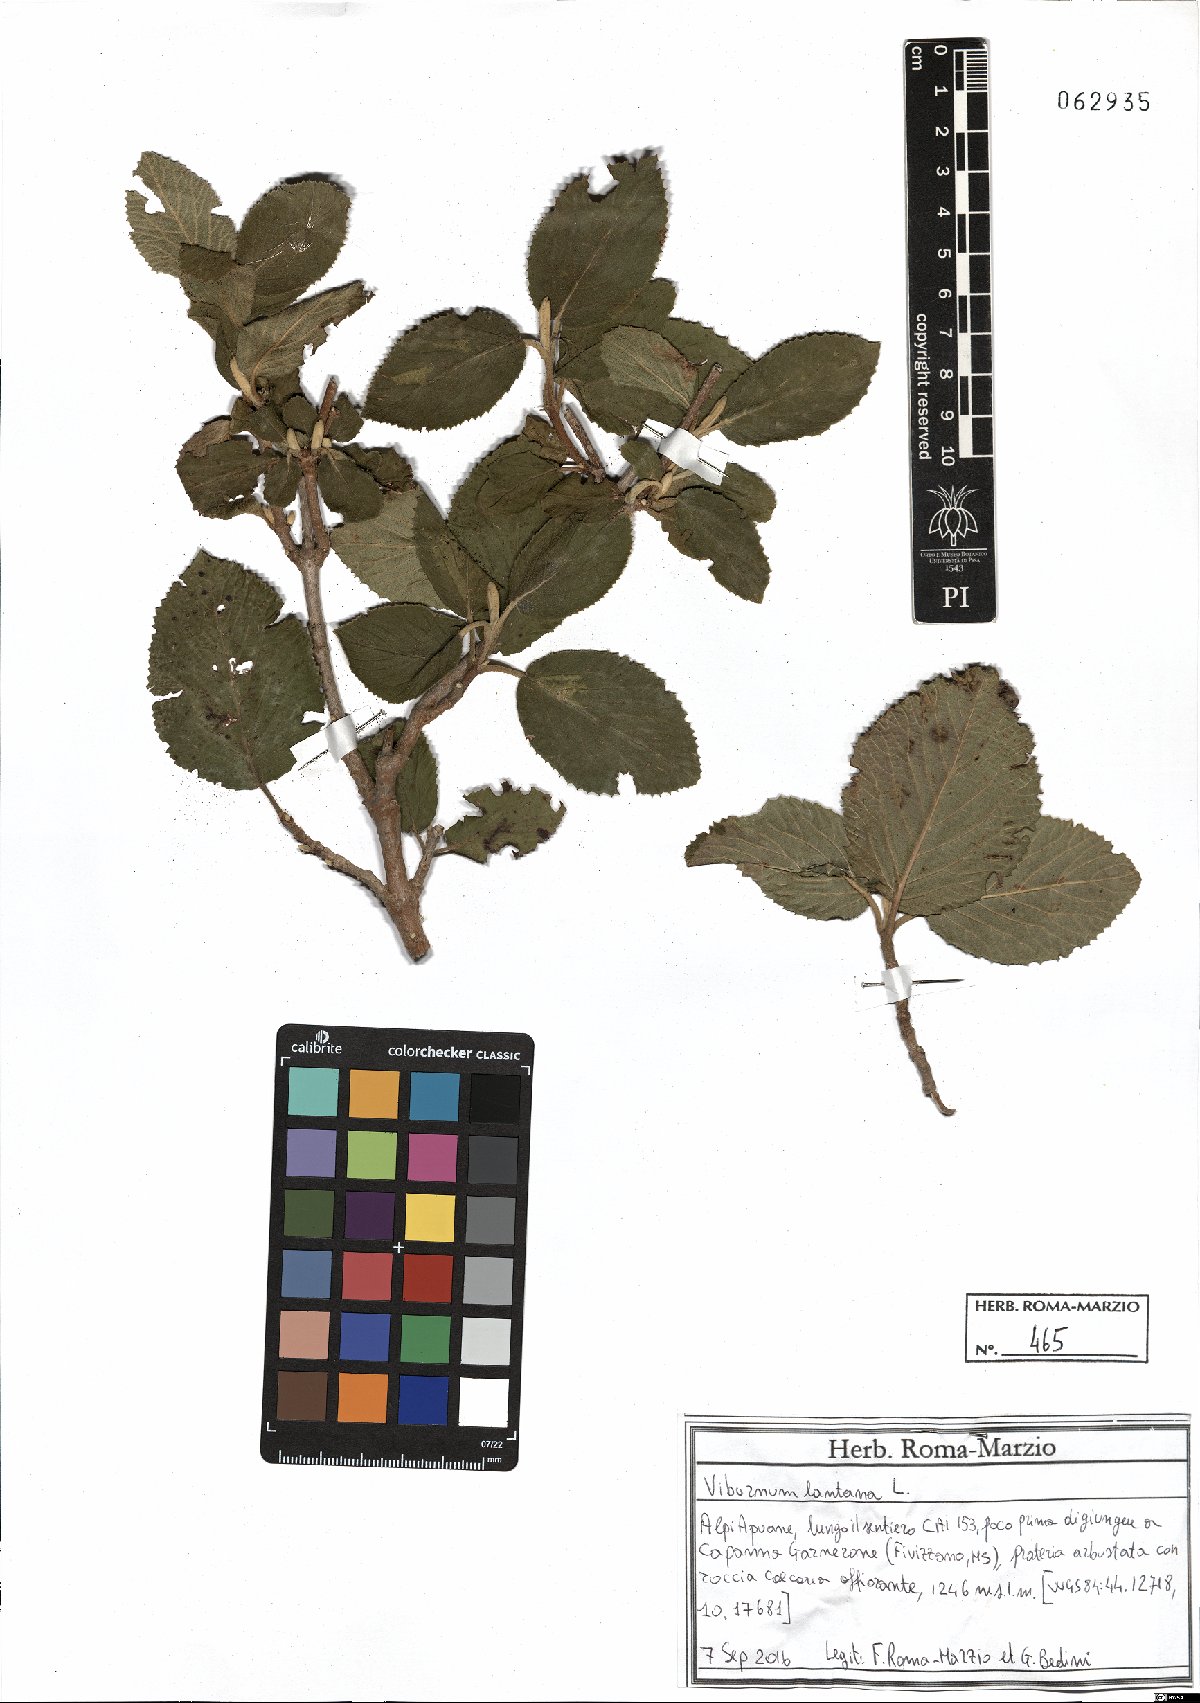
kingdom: Plantae
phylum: Tracheophyta
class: Magnoliopsida
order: Dipsacales
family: Viburnaceae
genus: Viburnum
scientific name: Viburnum lantana
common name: Wayfaring tree
